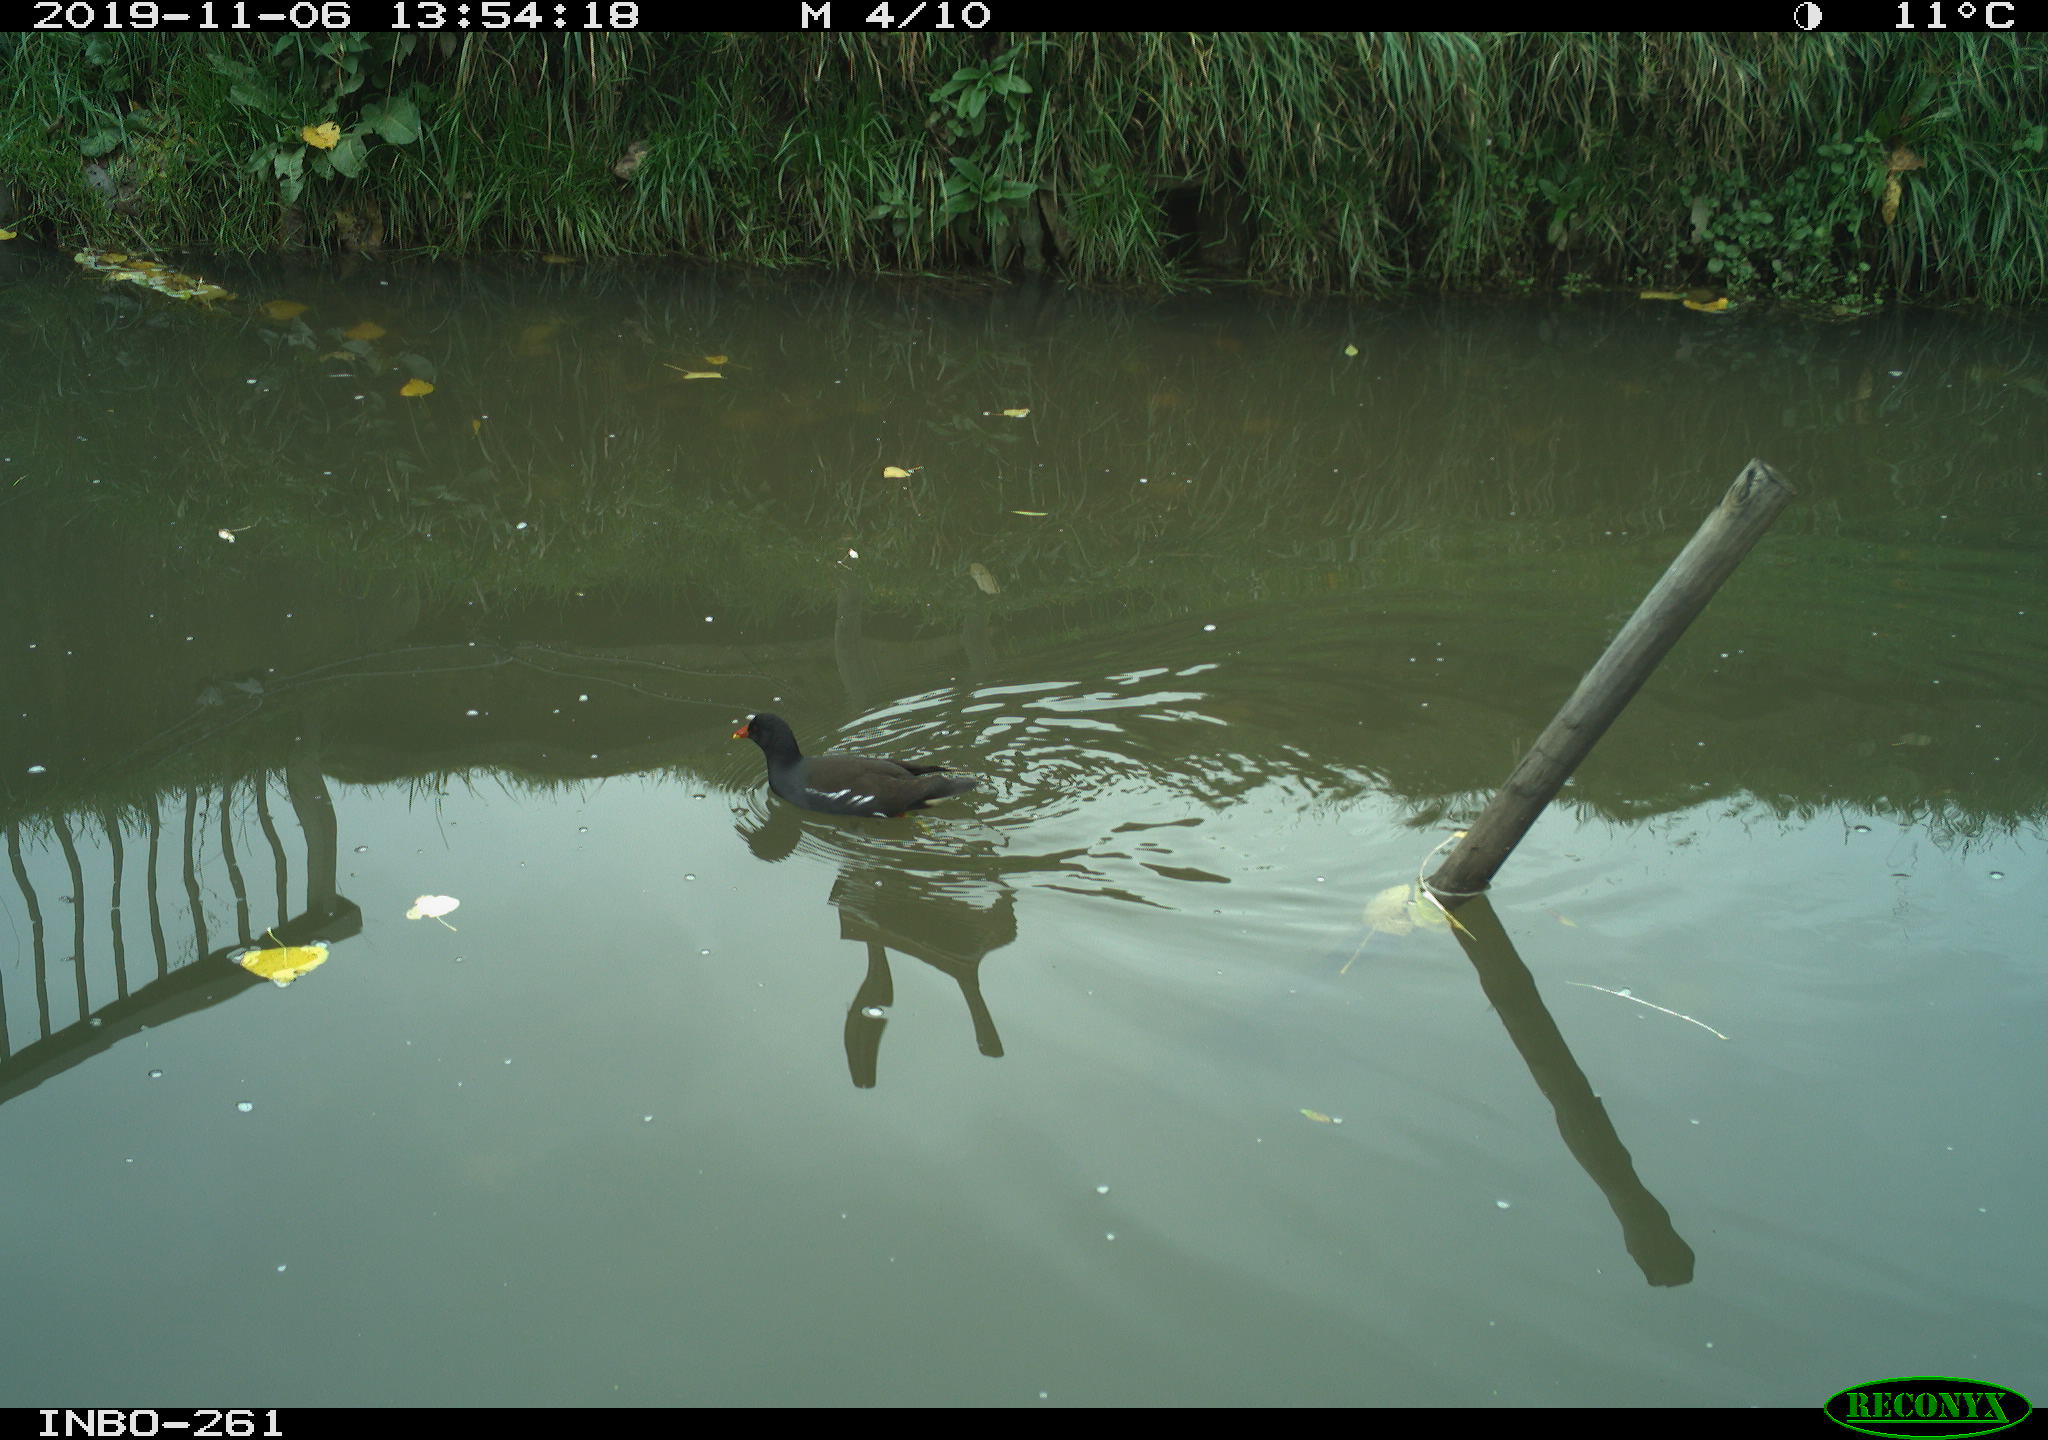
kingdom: Animalia
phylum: Chordata
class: Aves
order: Gruiformes
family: Rallidae
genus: Gallinula
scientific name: Gallinula chloropus
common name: Common moorhen
